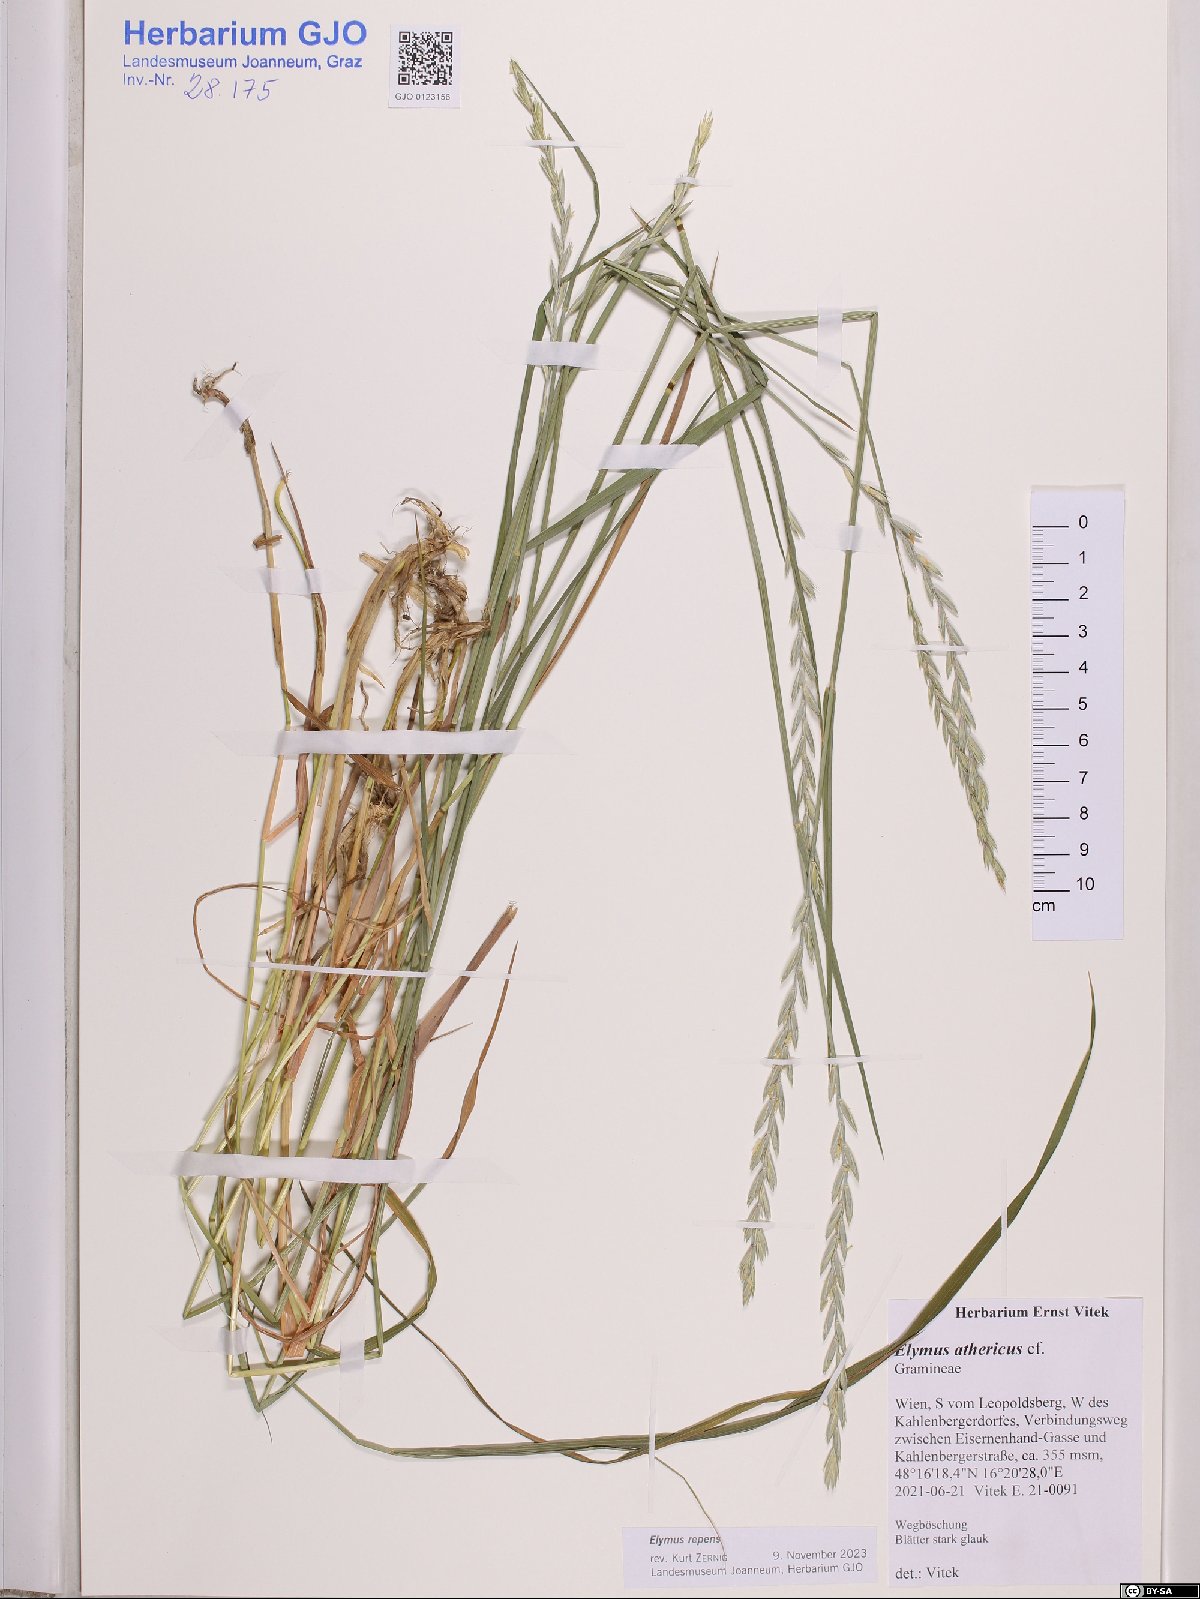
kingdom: Plantae
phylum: Tracheophyta
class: Liliopsida
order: Poales
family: Poaceae
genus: Elymus
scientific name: Elymus repens
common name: Quackgrass
